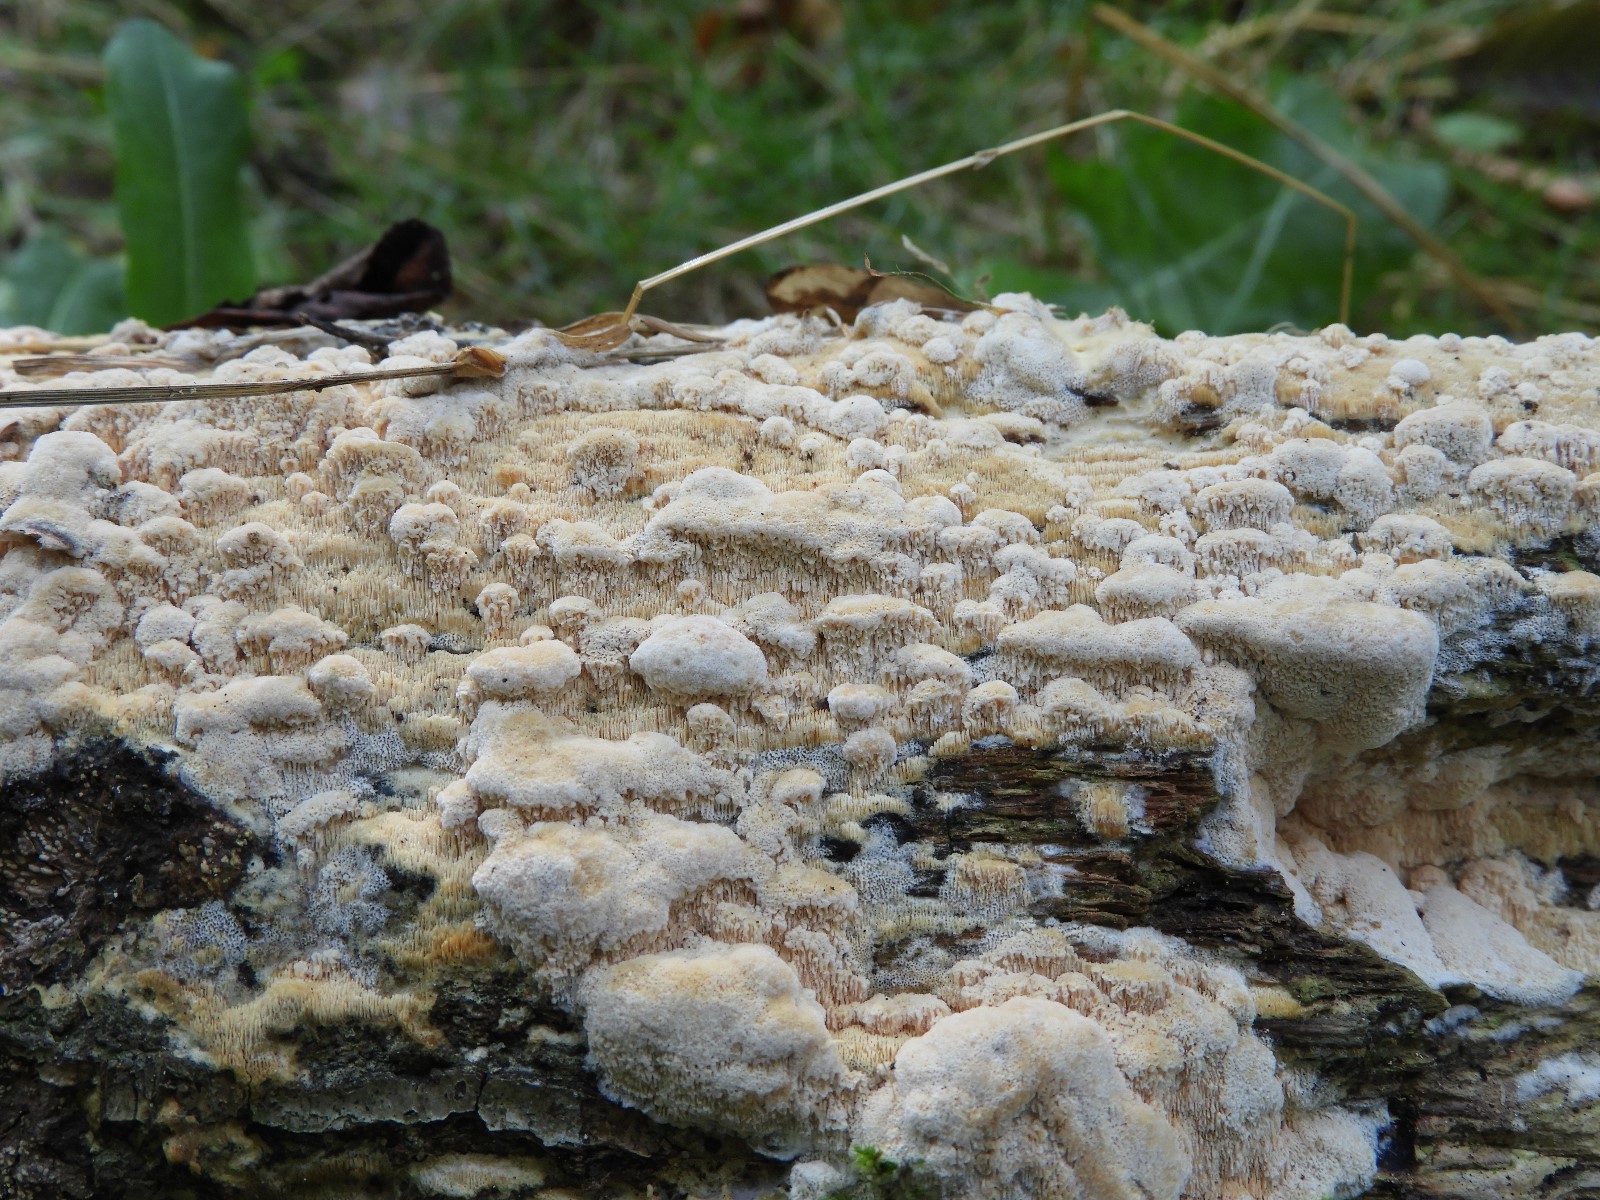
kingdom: Fungi
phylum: Basidiomycota
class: Agaricomycetes
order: Hymenochaetales
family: Schizoporaceae
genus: Xylodon
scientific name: Xylodon
